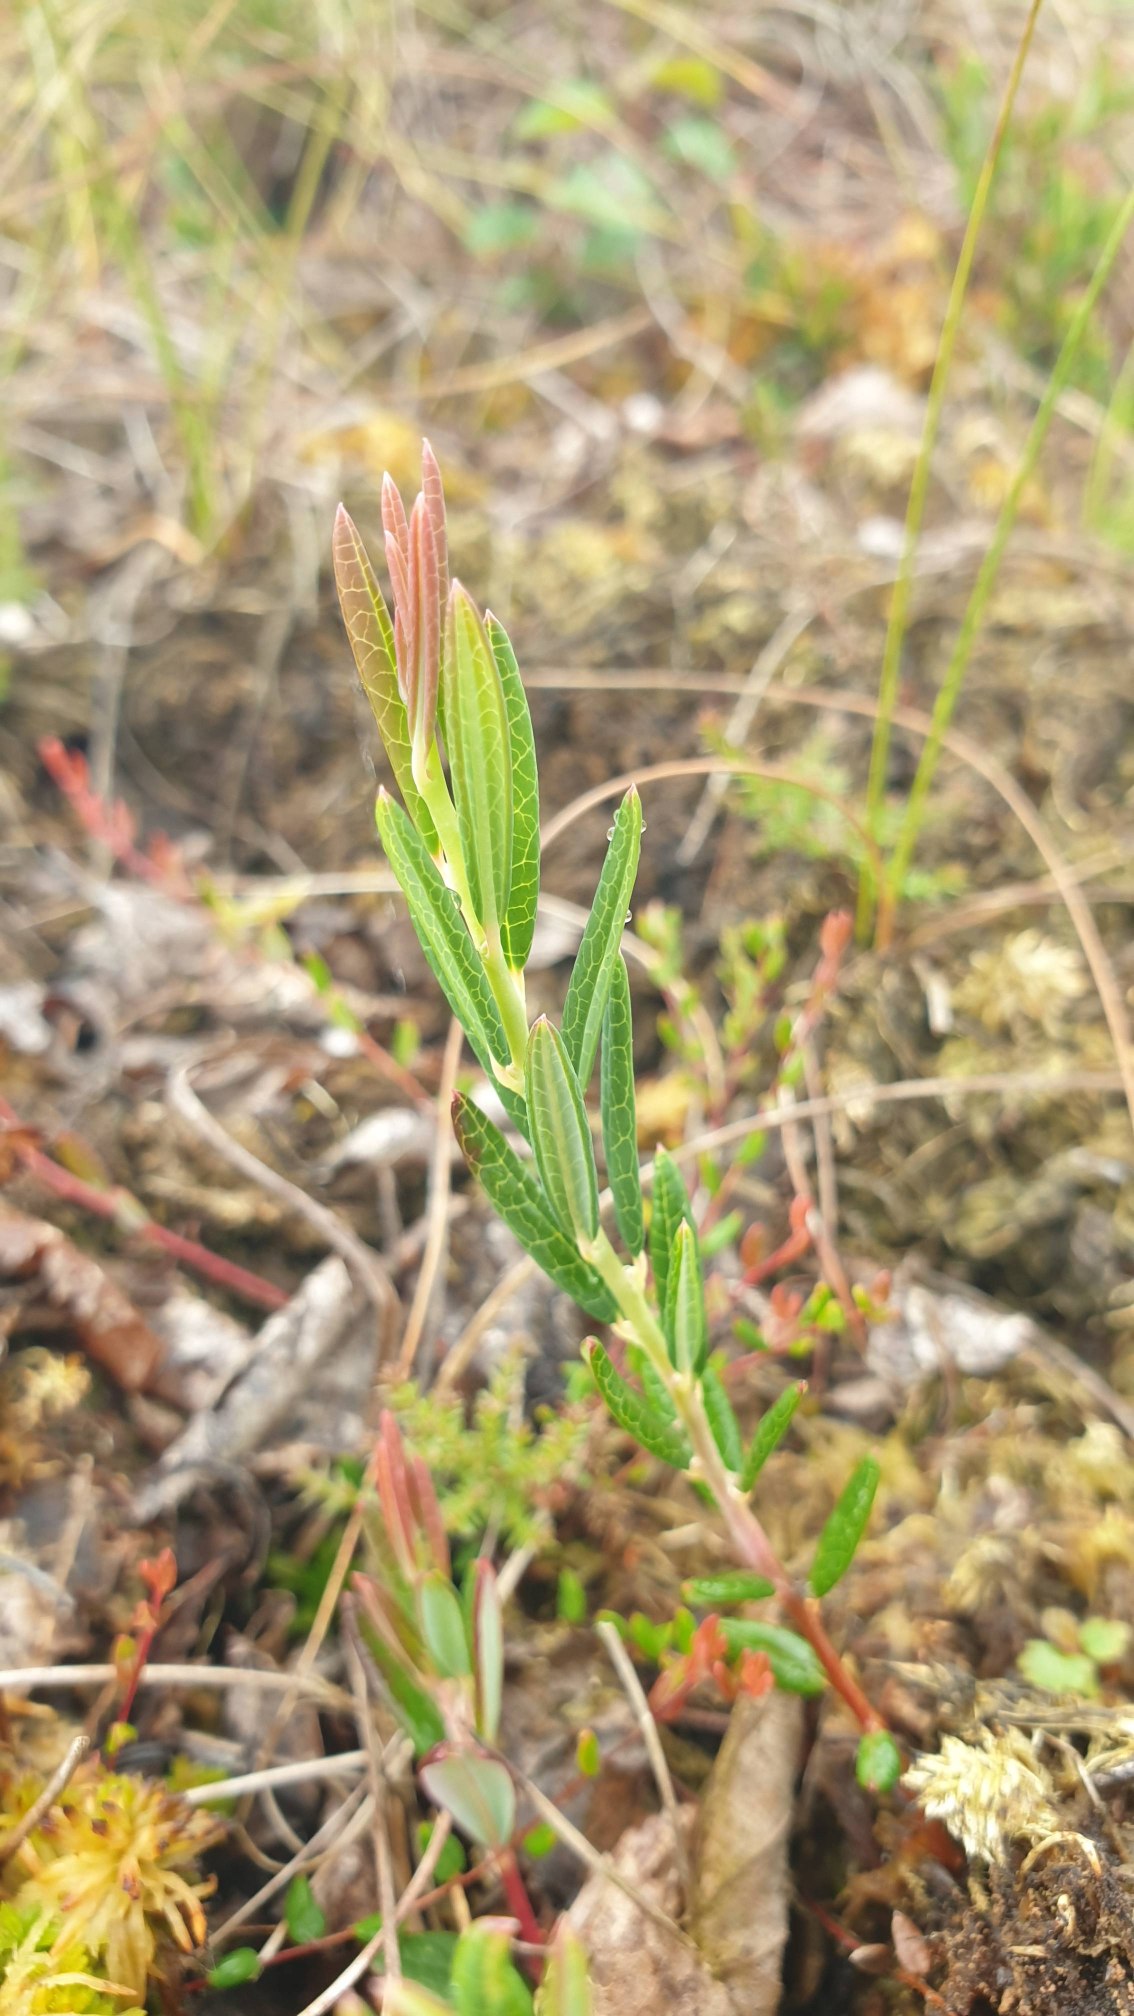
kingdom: Plantae
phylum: Tracheophyta
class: Magnoliopsida
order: Ericales
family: Ericaceae
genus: Andromeda
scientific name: Andromeda polifolia
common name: Rosmarinlyng
